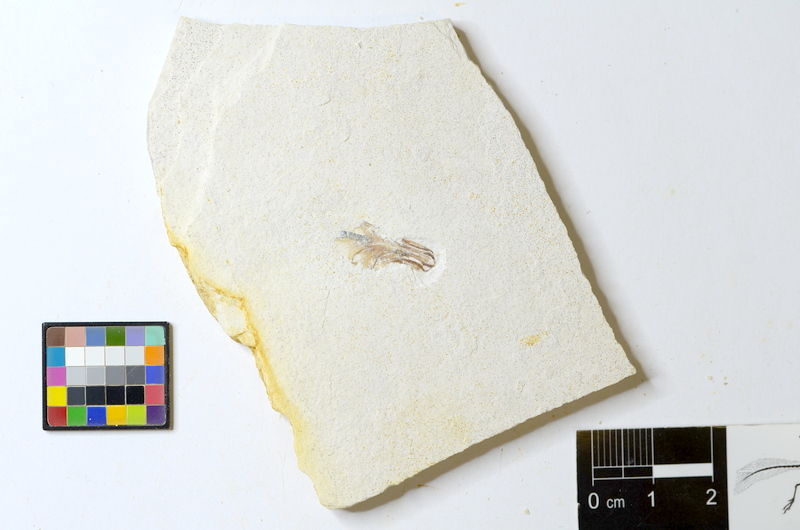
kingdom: Animalia
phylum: Chordata
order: Salmoniformes
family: Orthogonikleithridae
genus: Orthogonikleithrus
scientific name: Orthogonikleithrus hoelli
